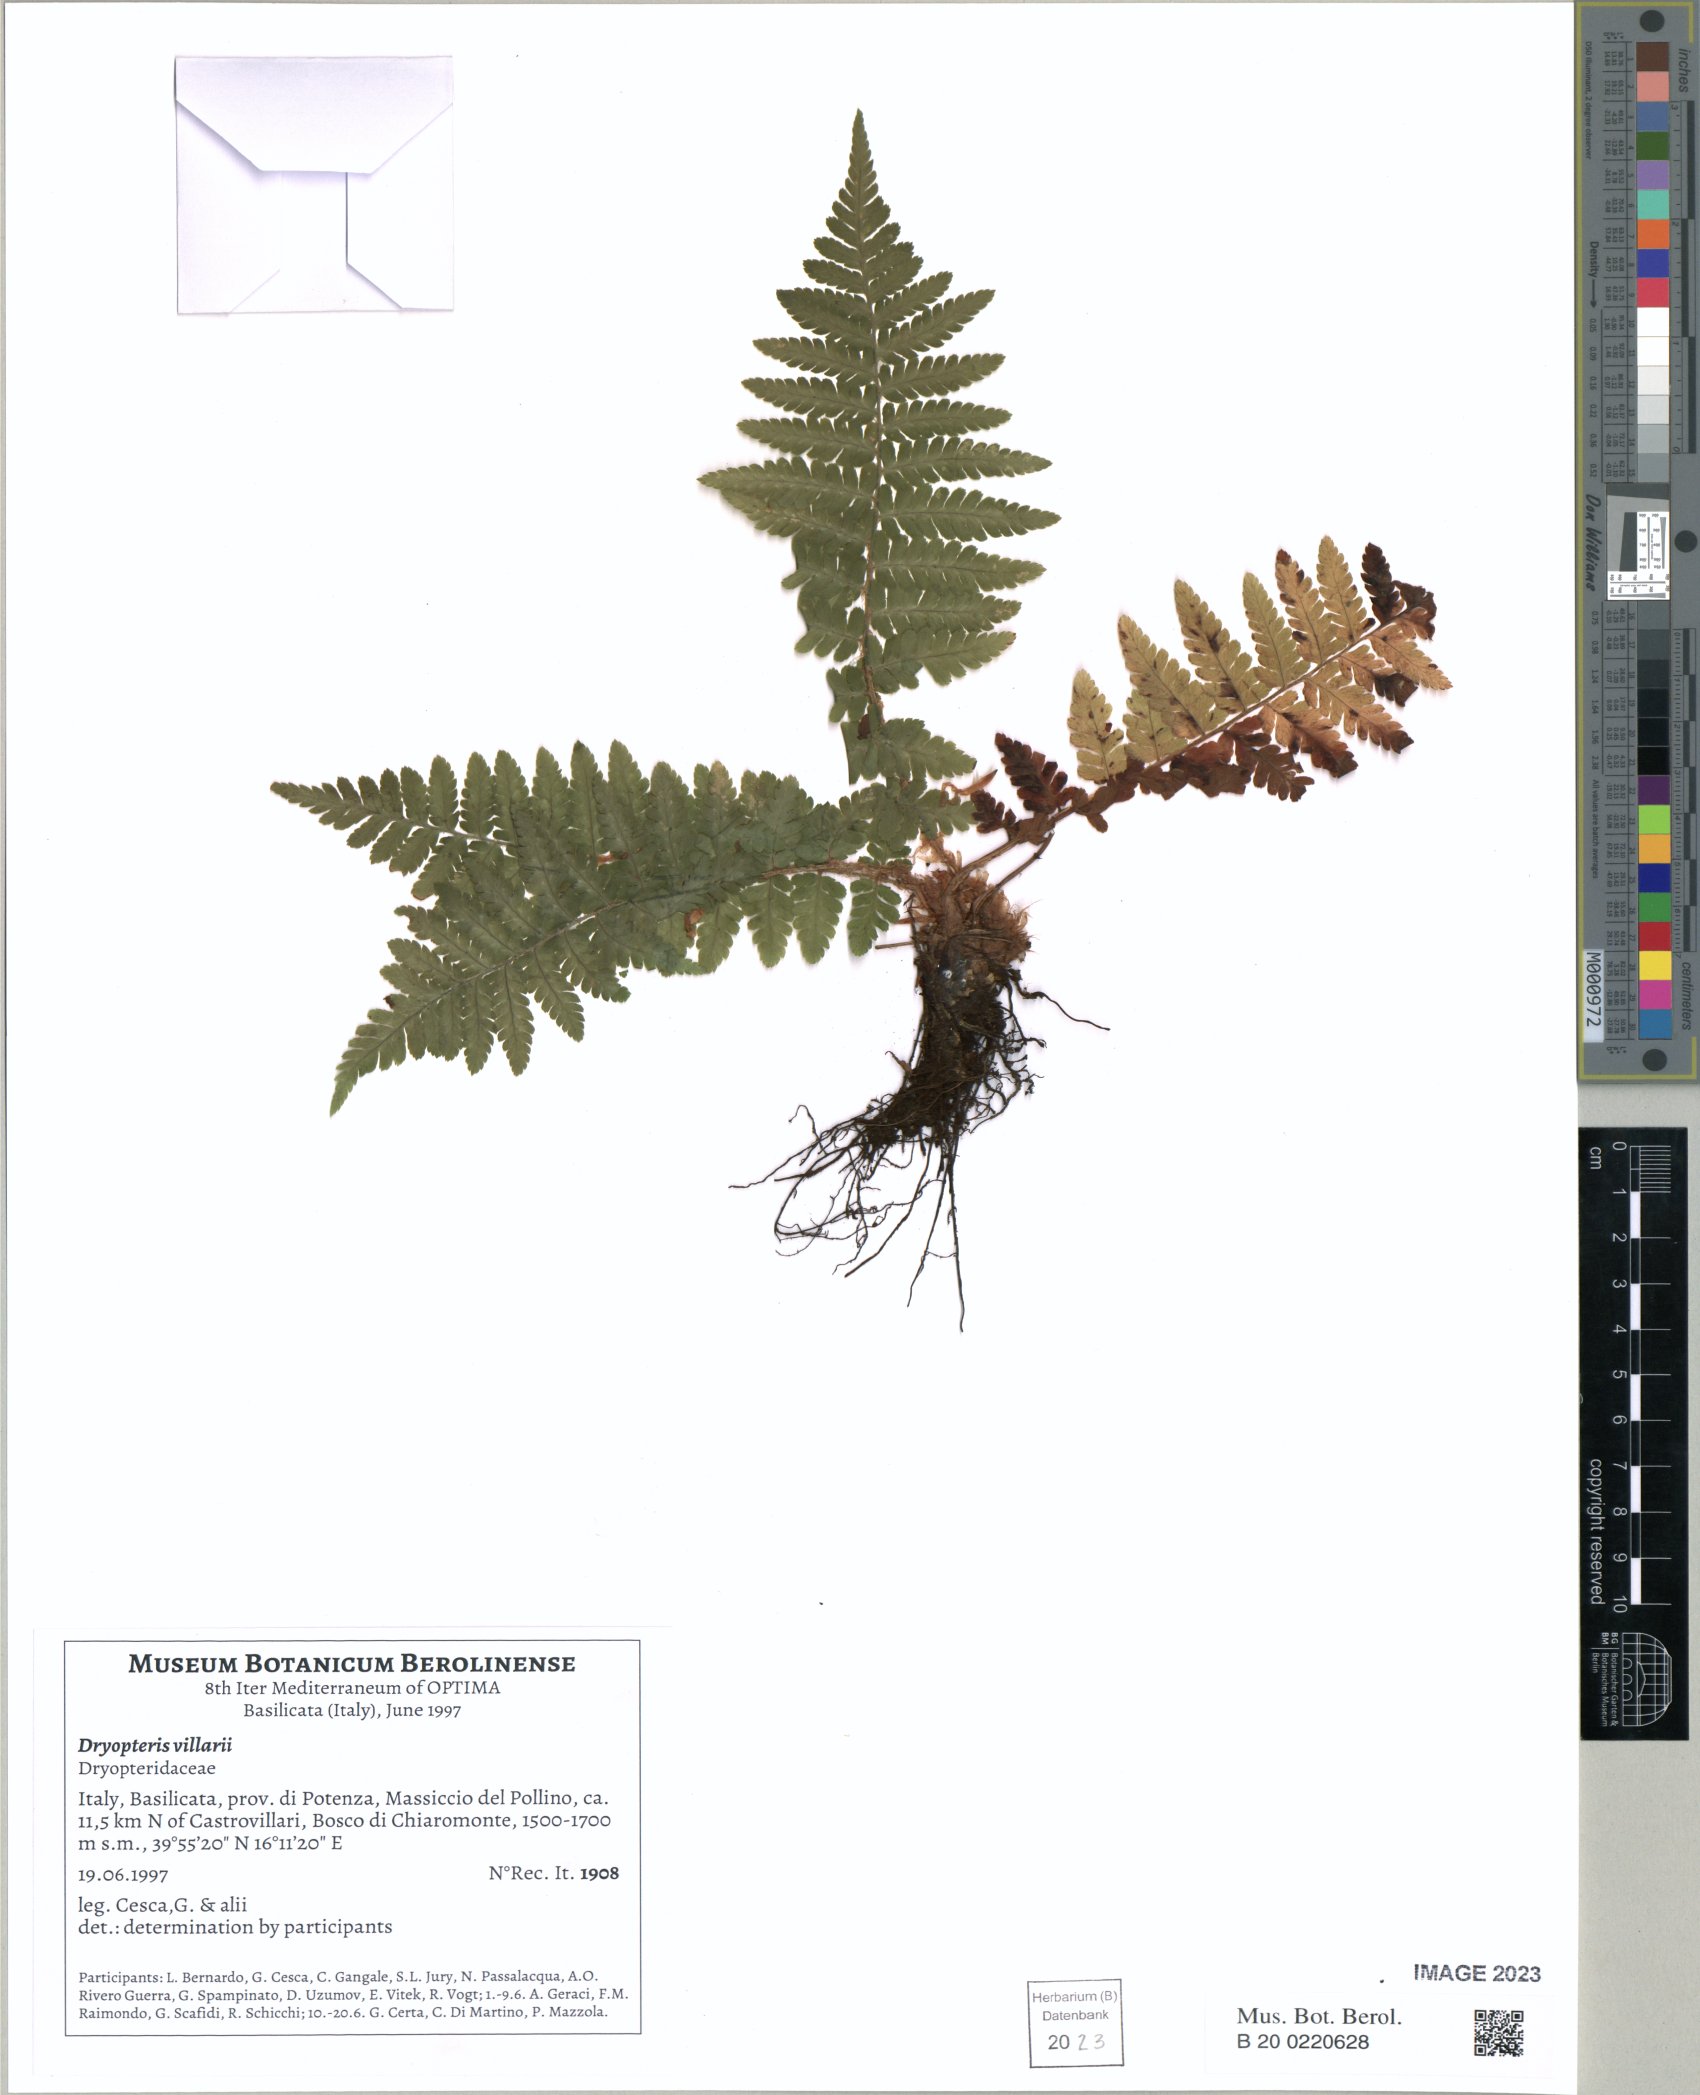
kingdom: Plantae
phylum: Tracheophyta
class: Polypodiopsida
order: Polypodiales
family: Dryopteridaceae
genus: Dryopteris
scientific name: Dryopteris villarii
